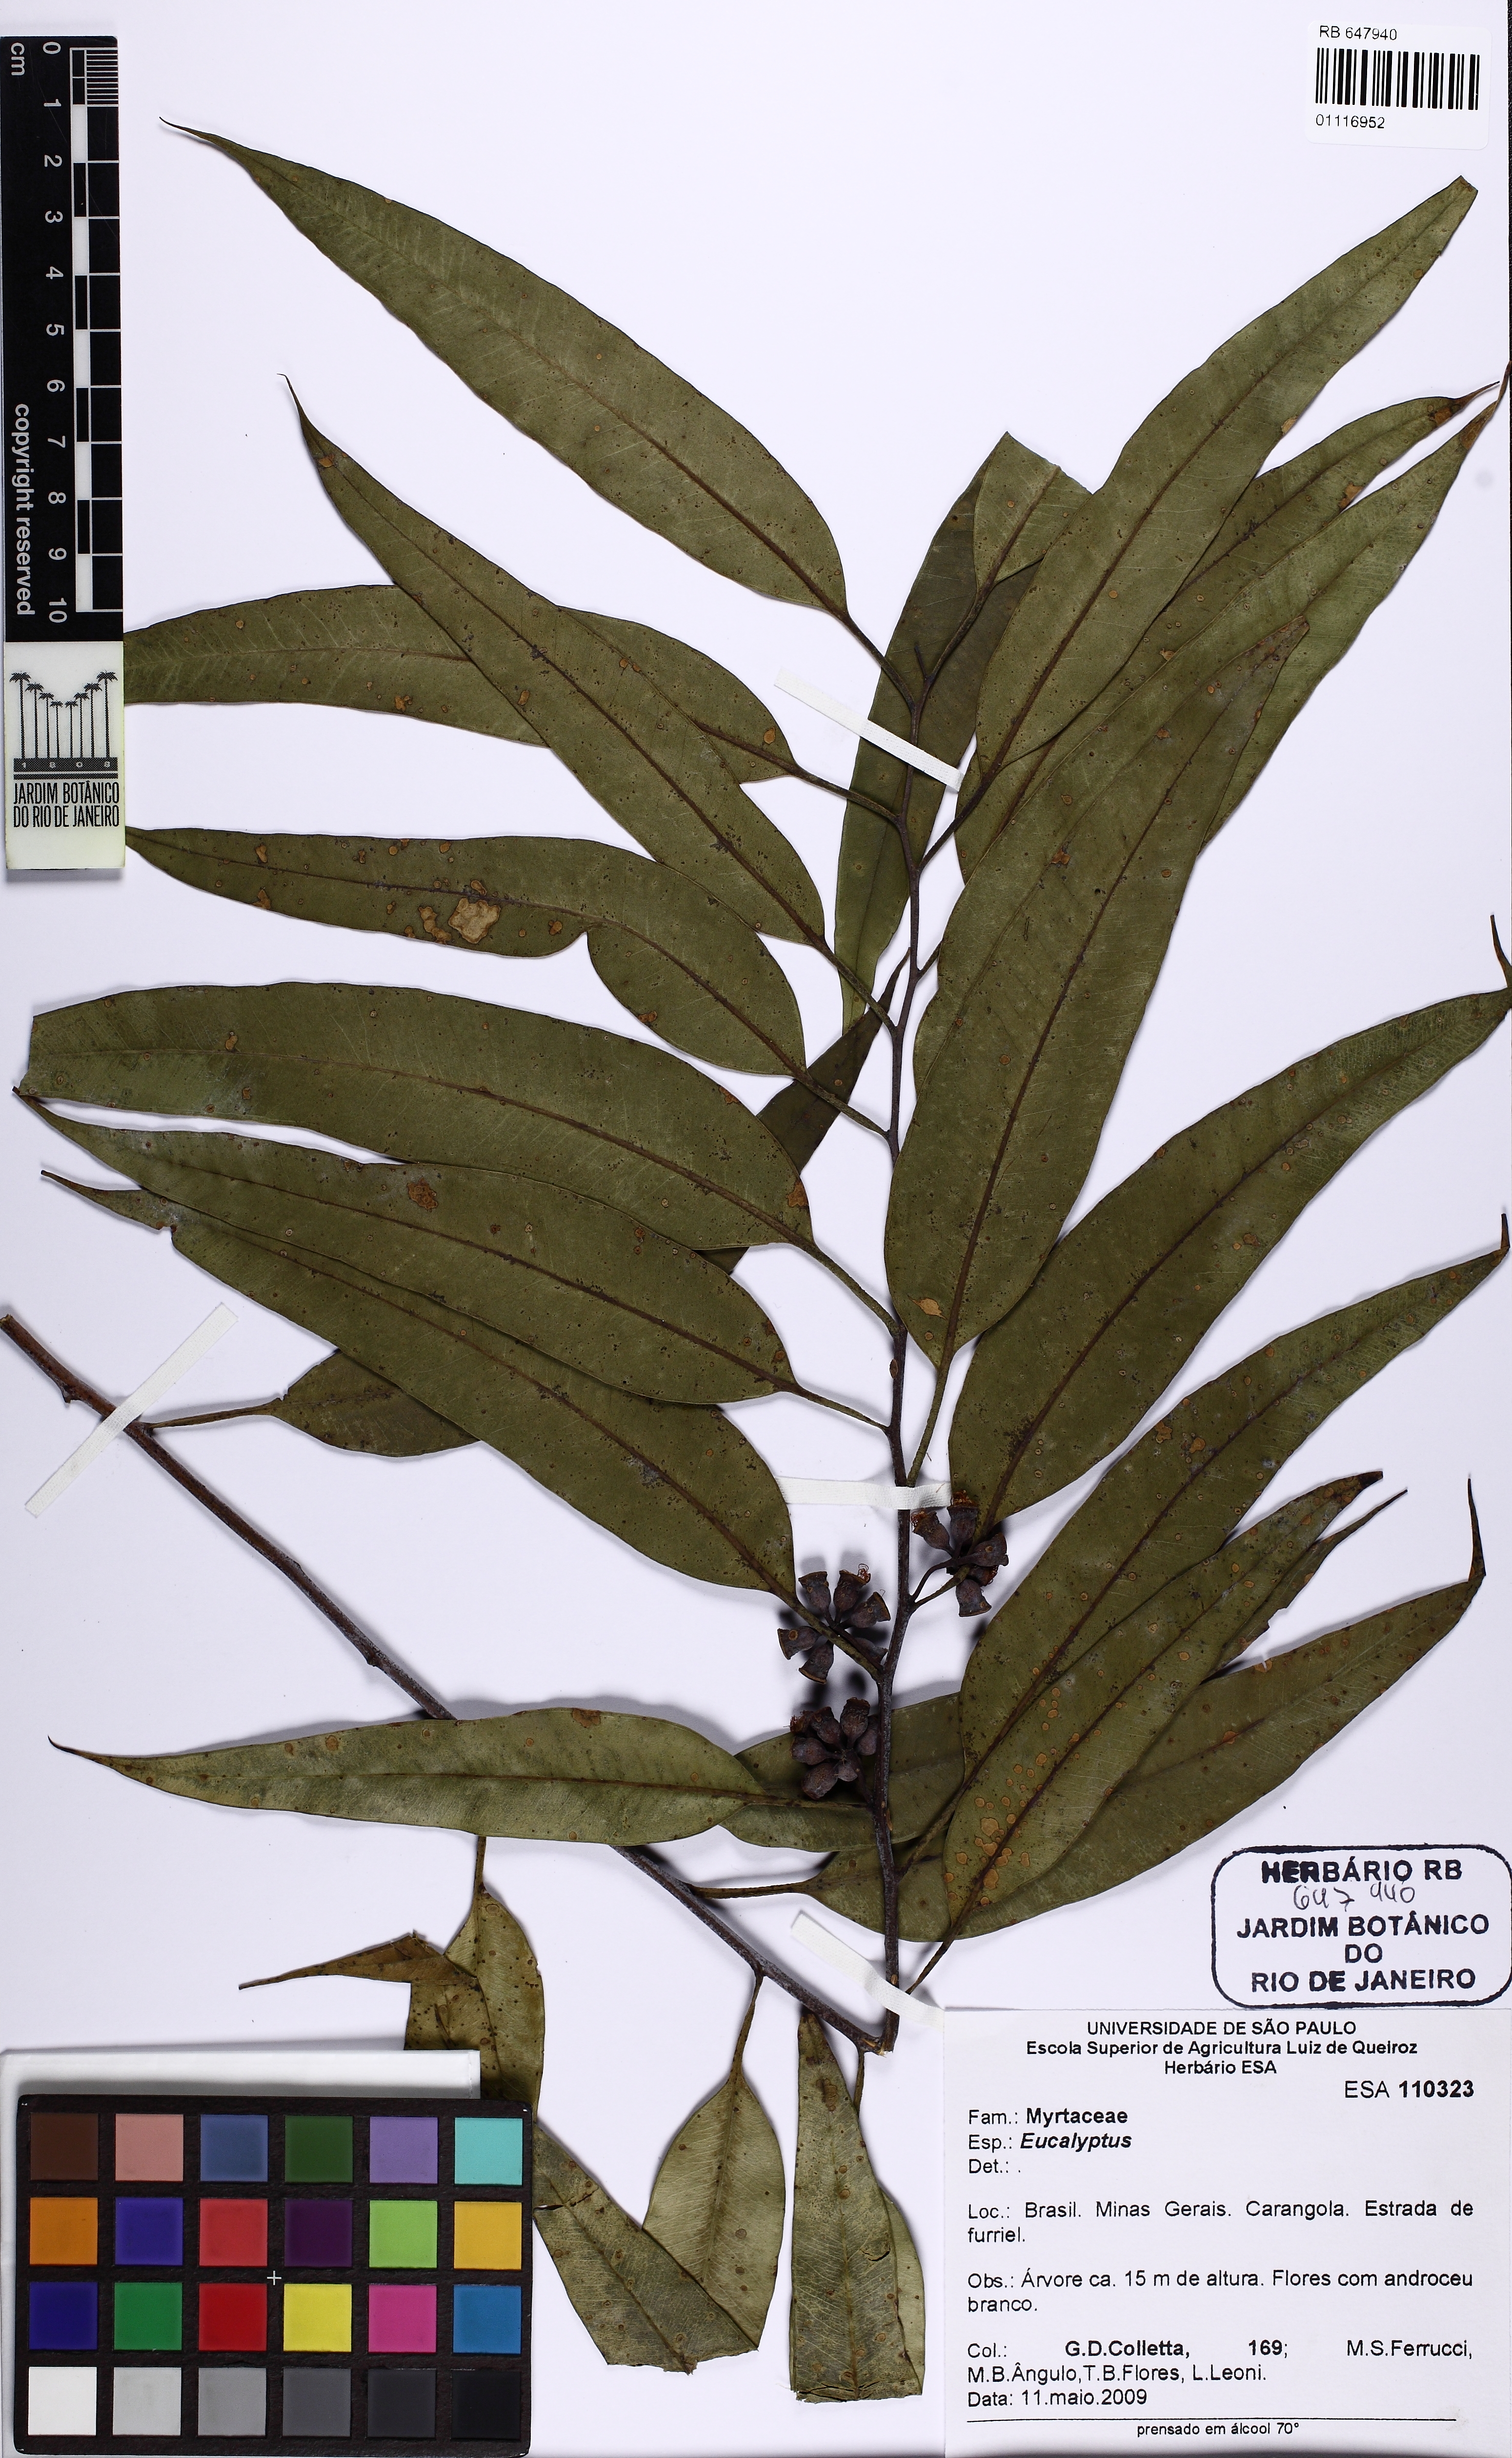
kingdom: Plantae
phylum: Tracheophyta
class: Magnoliopsida
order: Myrtales
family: Myrtaceae
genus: Eucalyptus
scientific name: Eucalyptus
